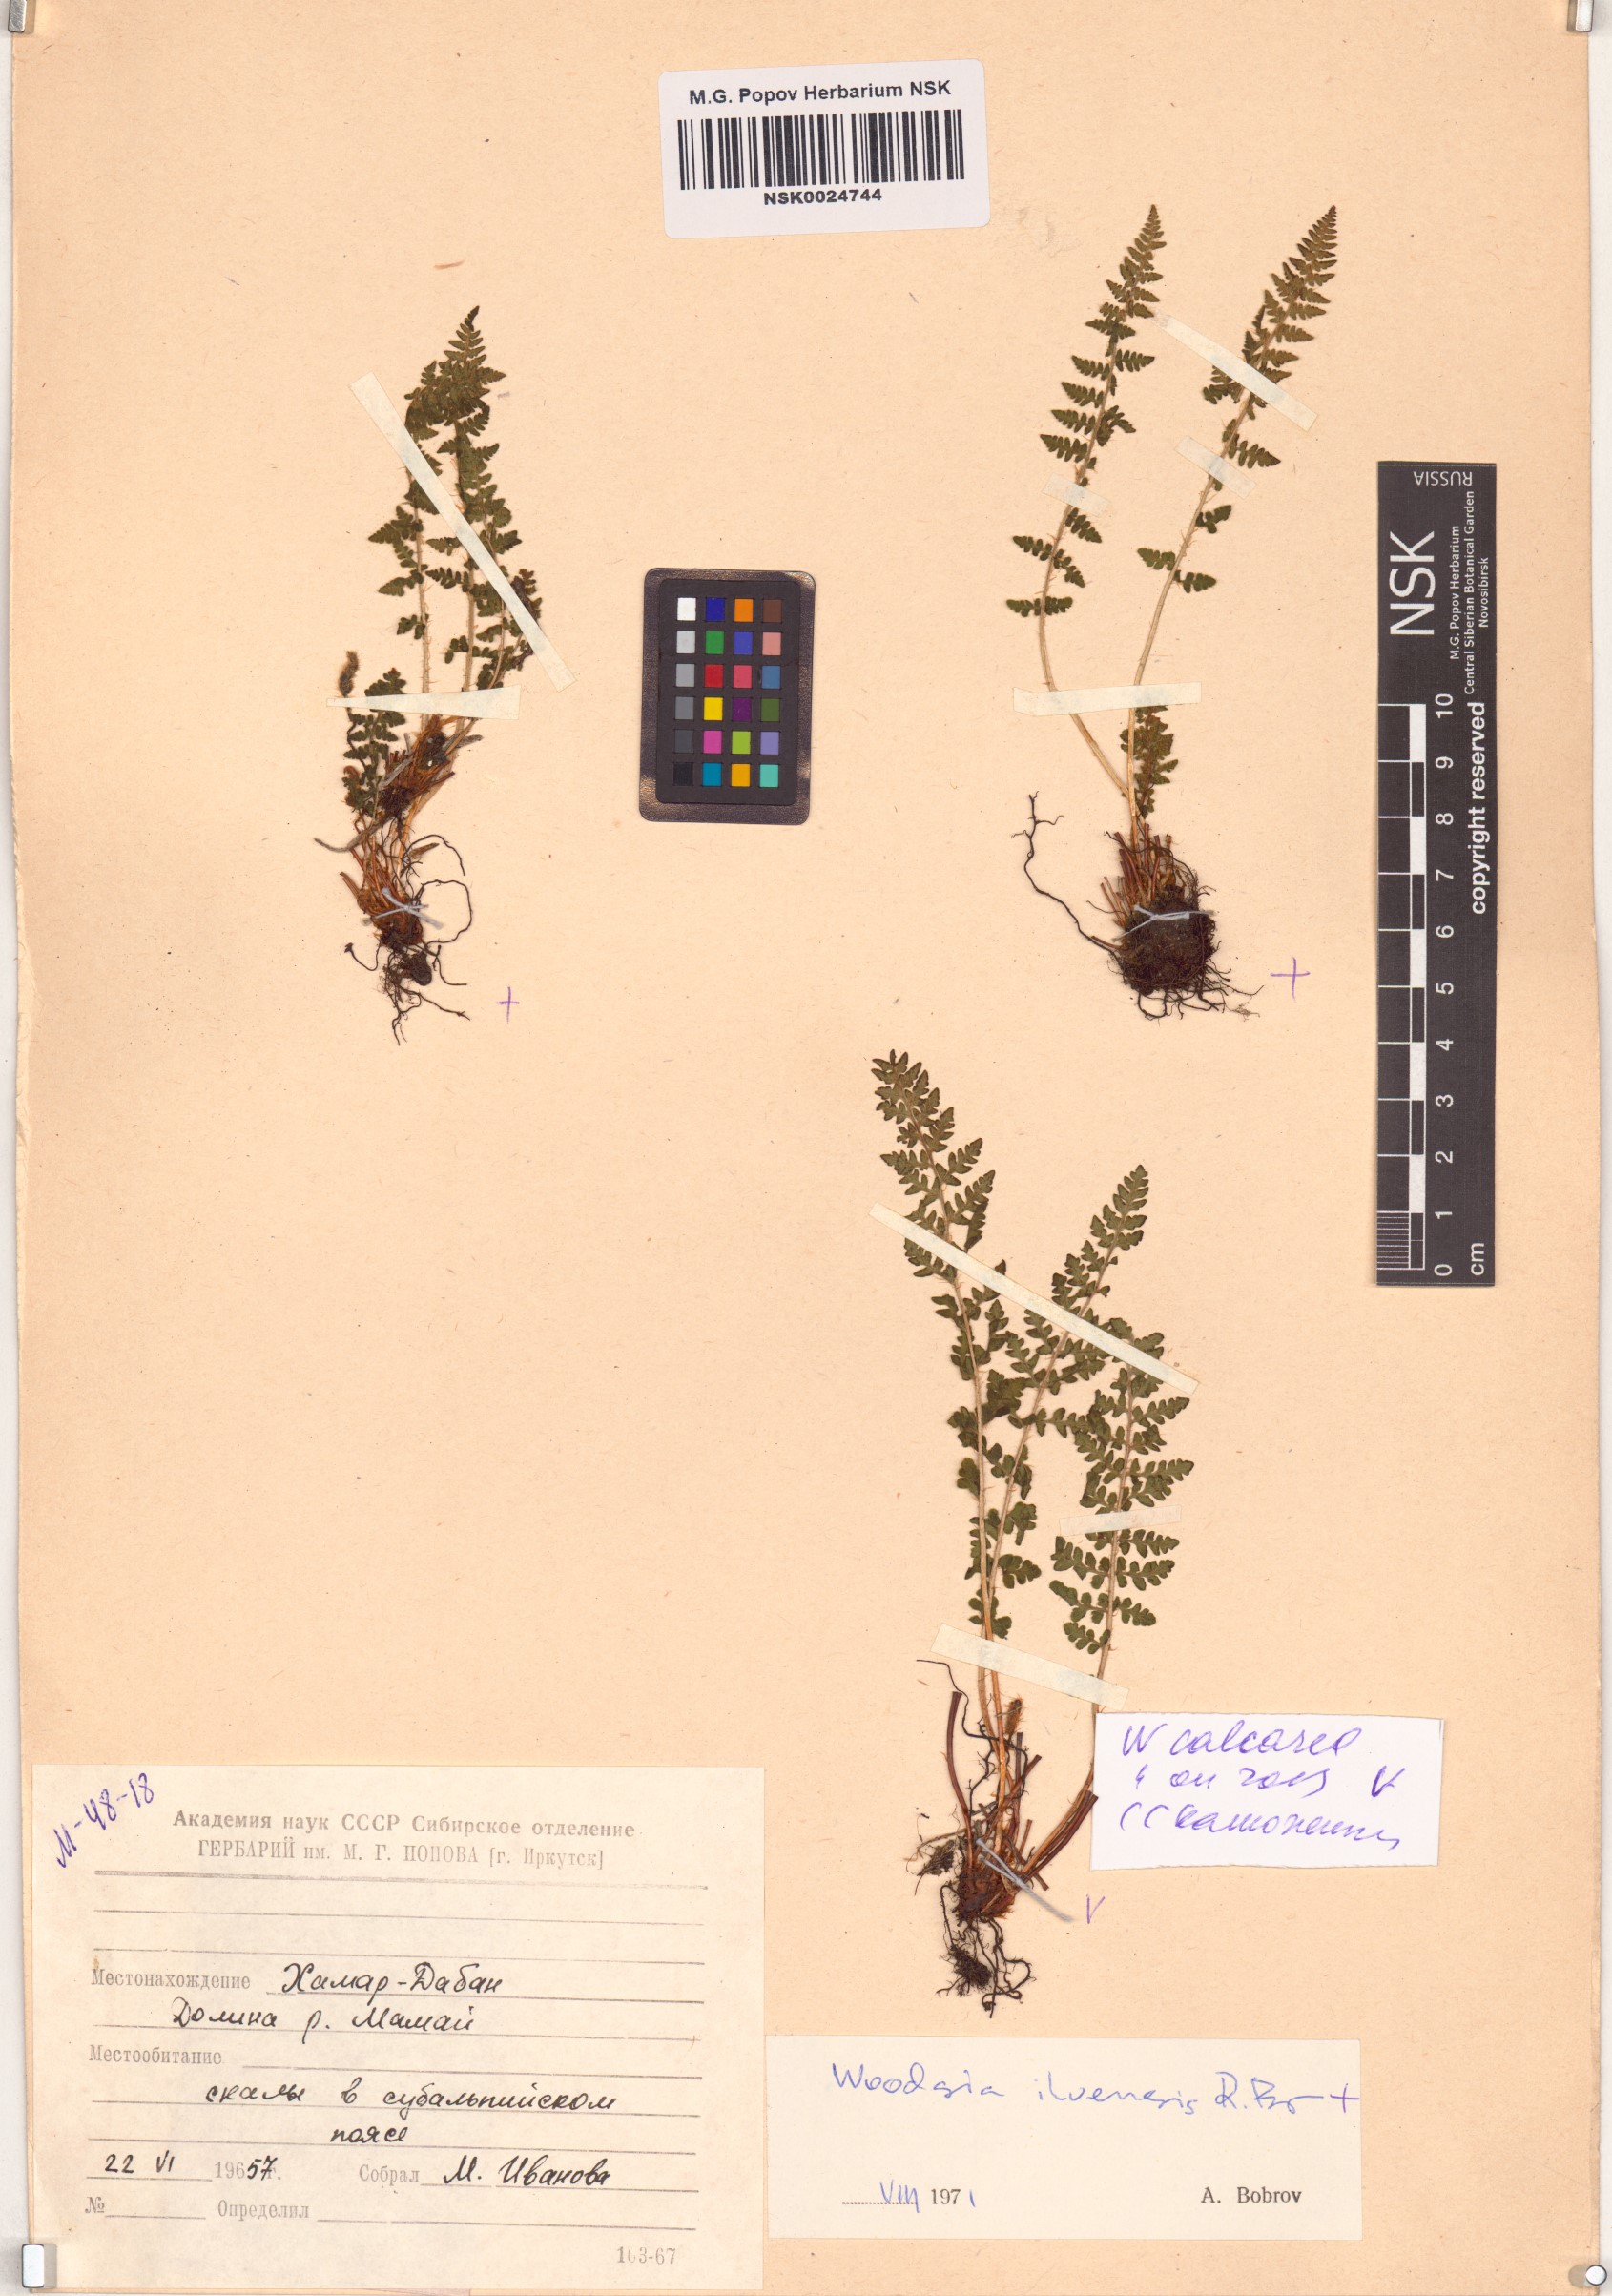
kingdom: Plantae
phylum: Tracheophyta
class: Polypodiopsida
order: Polypodiales
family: Woodsiaceae
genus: Woodsia
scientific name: Woodsia calcarea
